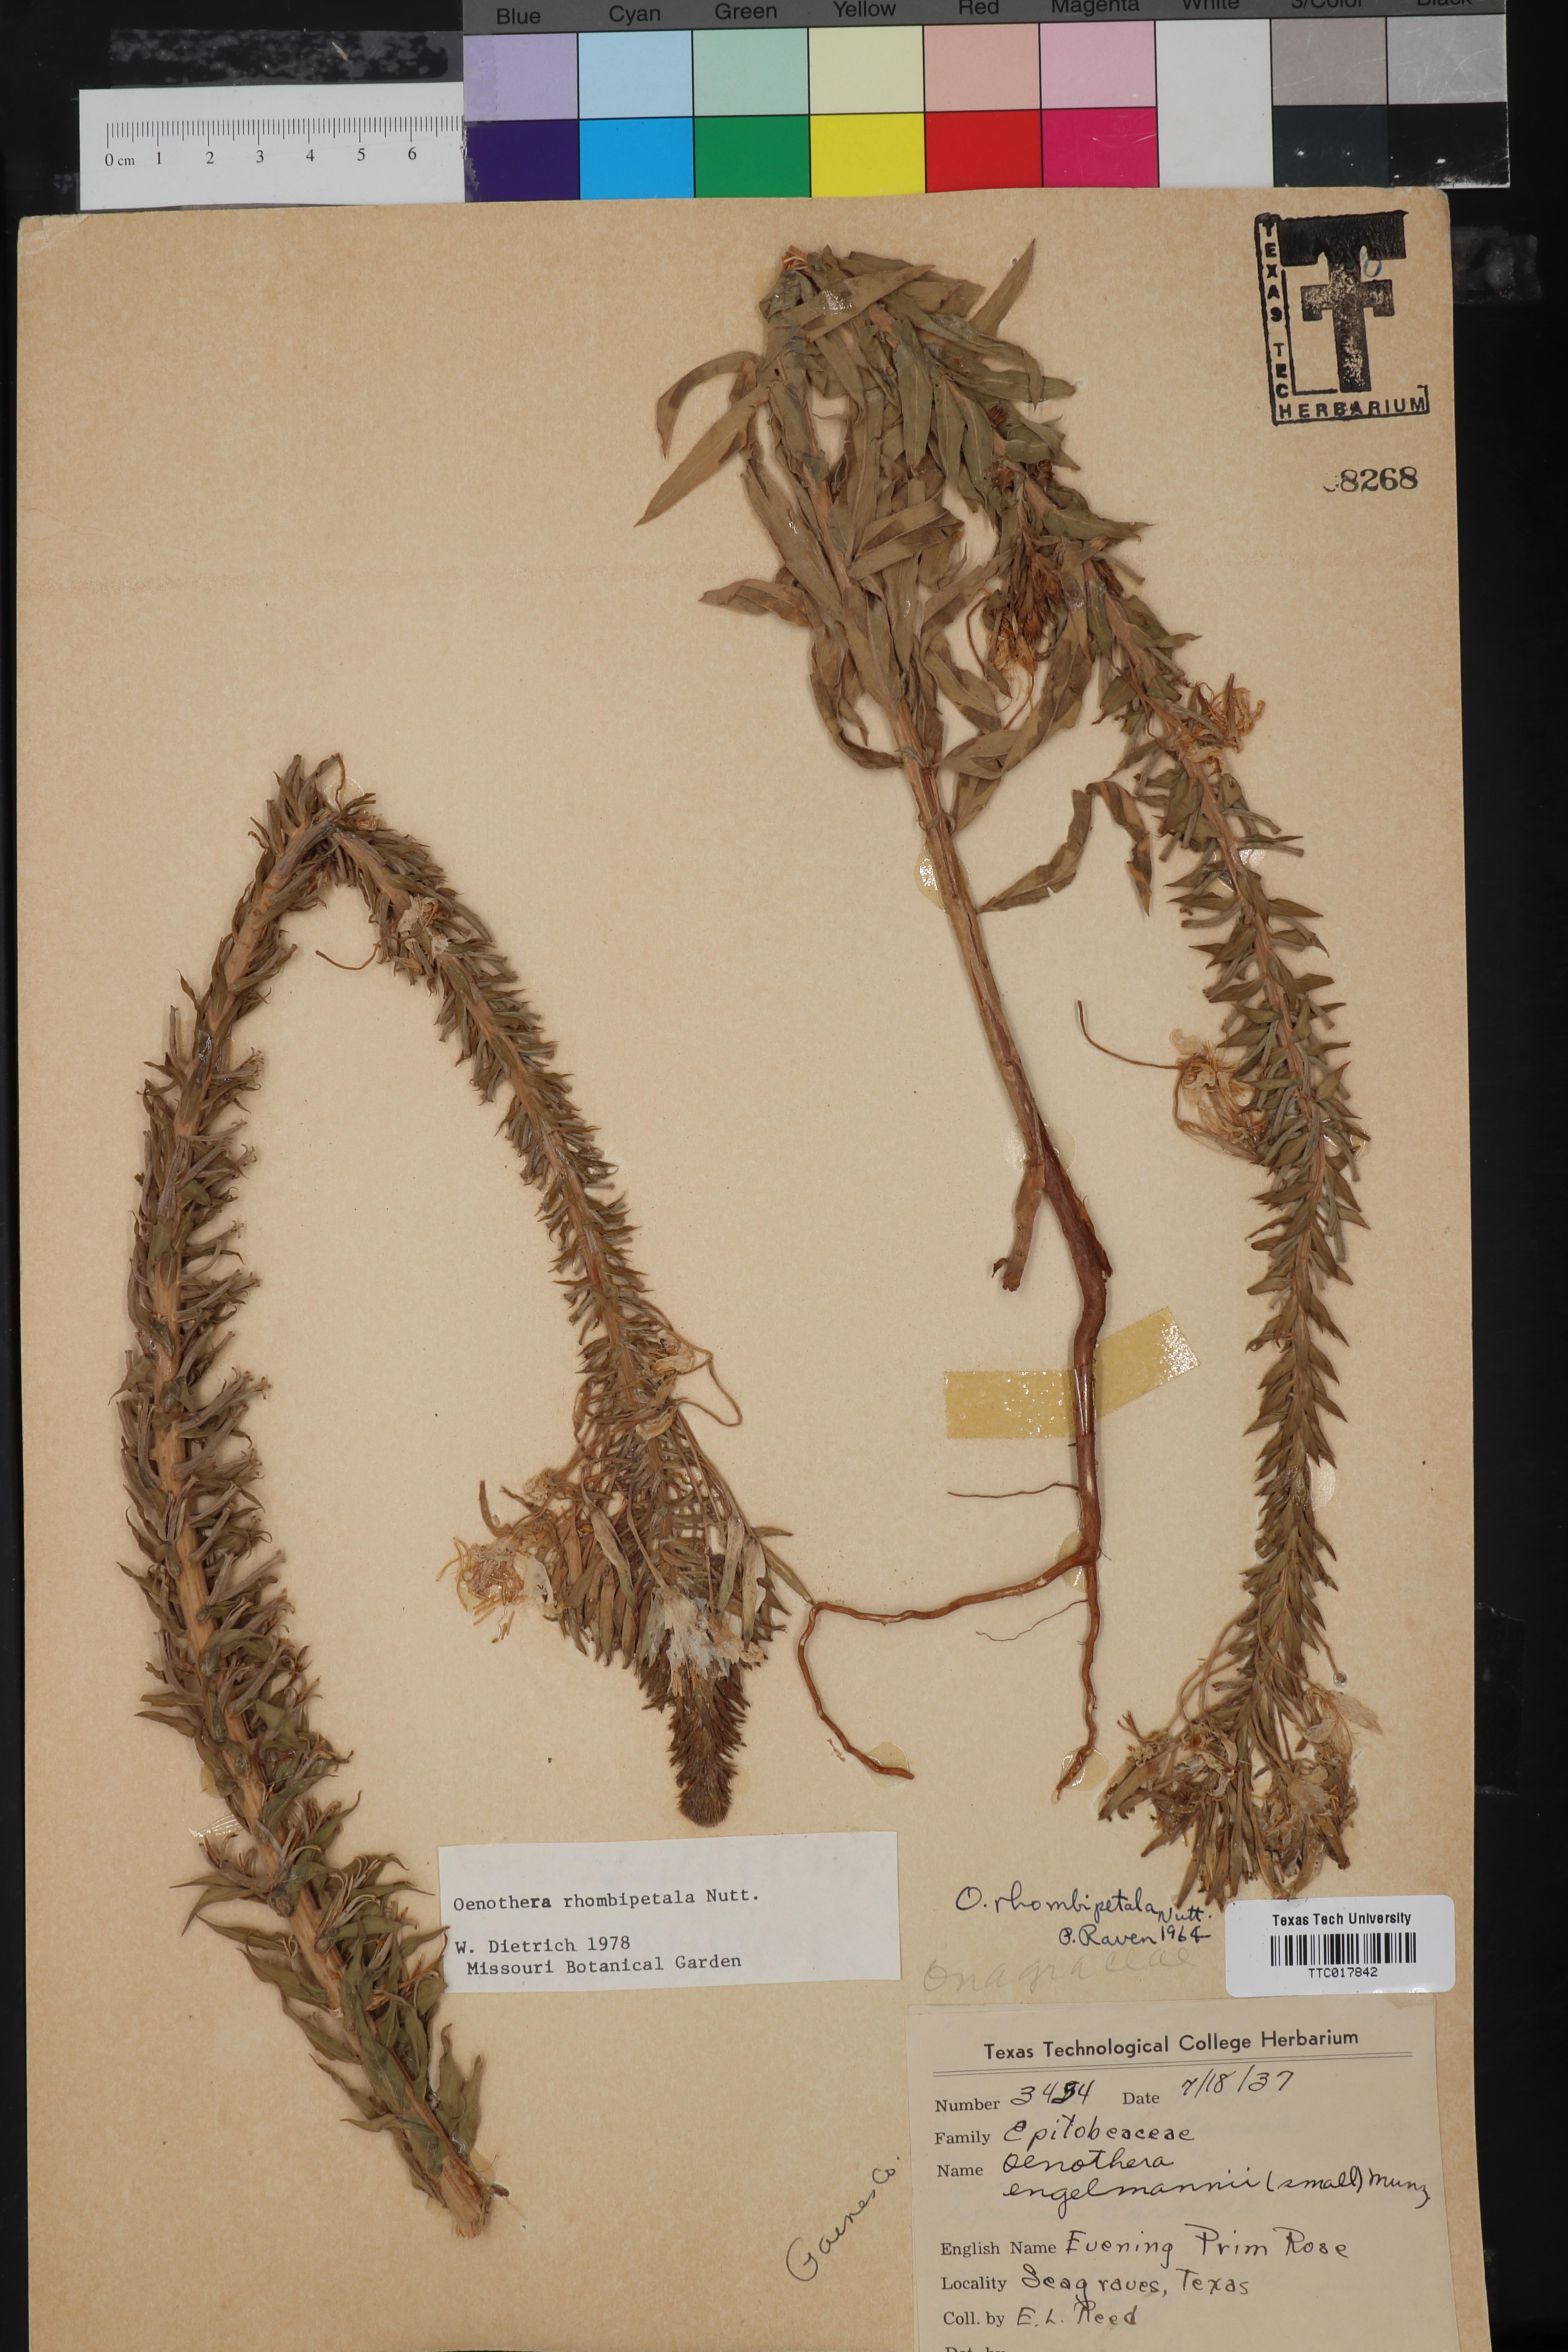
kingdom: Plantae
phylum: Tracheophyta
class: Magnoliopsida
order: Myrtales
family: Onagraceae
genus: Oenothera
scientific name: Oenothera rhombipetala
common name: Four-points evening-primrose
